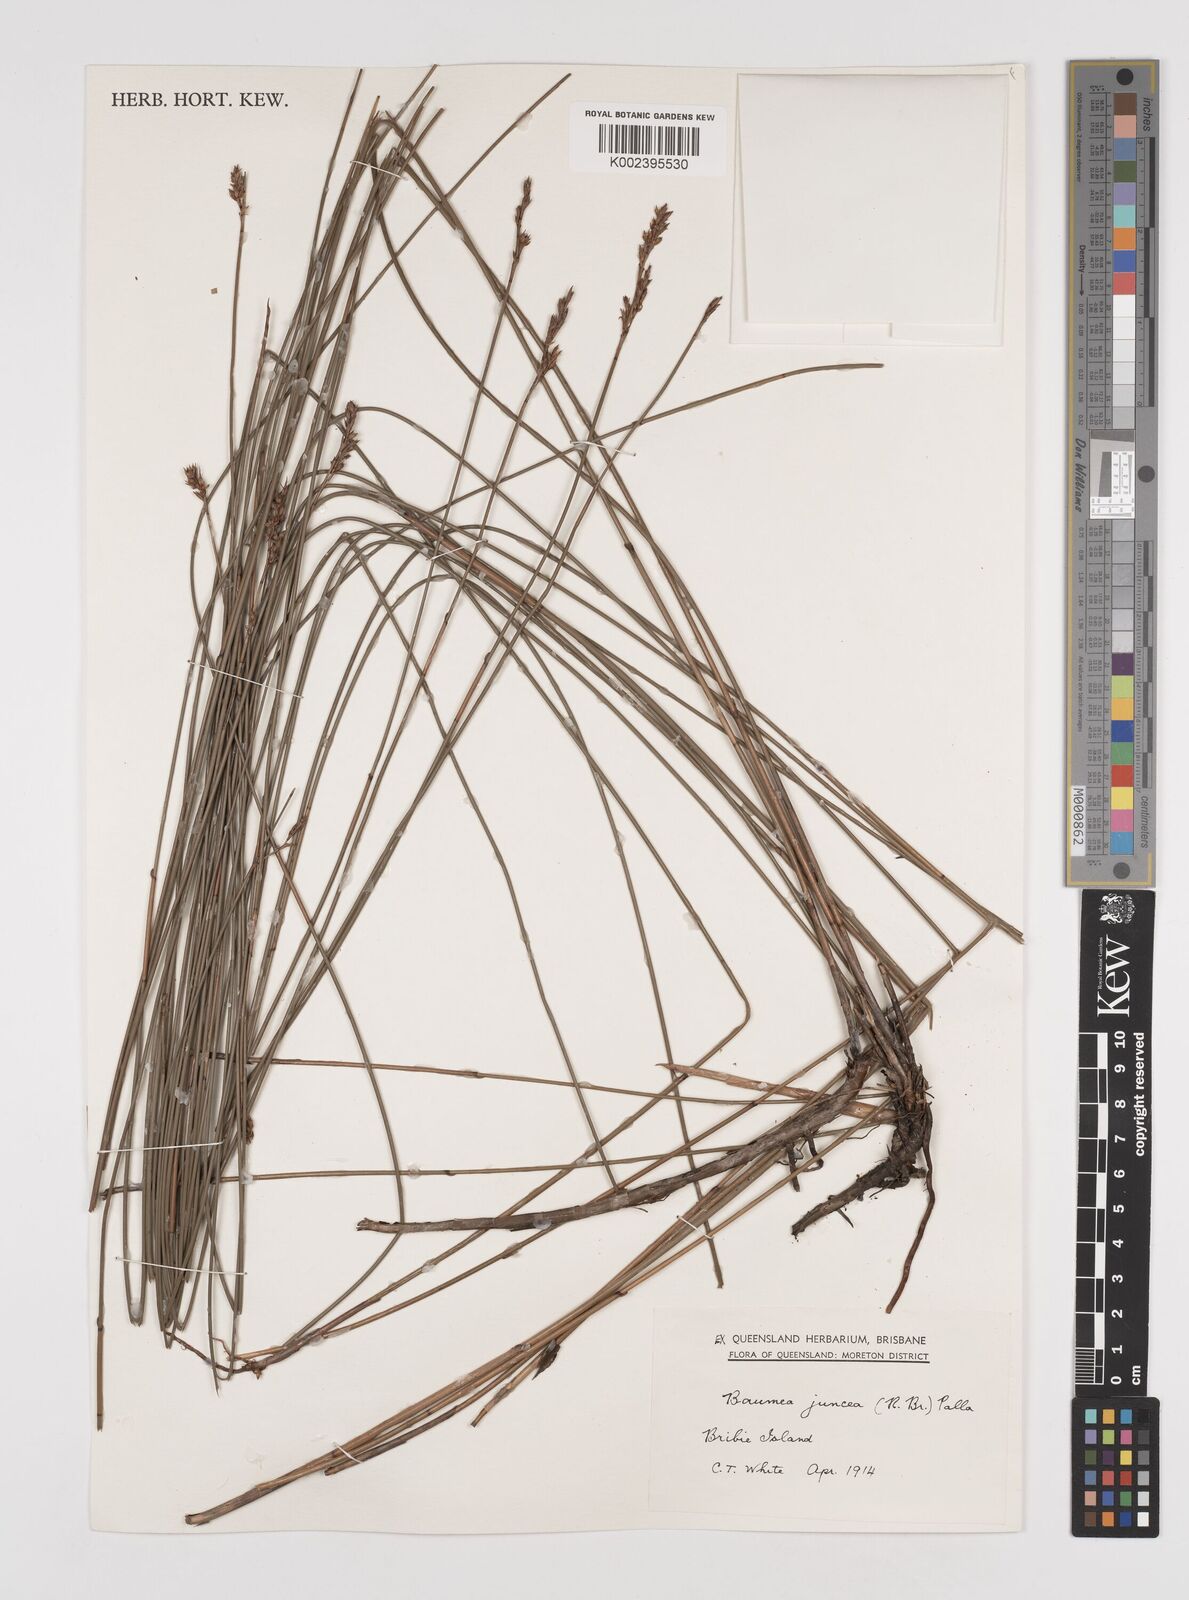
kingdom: Plantae
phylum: Tracheophyta
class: Liliopsida
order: Poales
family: Cyperaceae
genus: Machaerina
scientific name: Machaerina juncea
